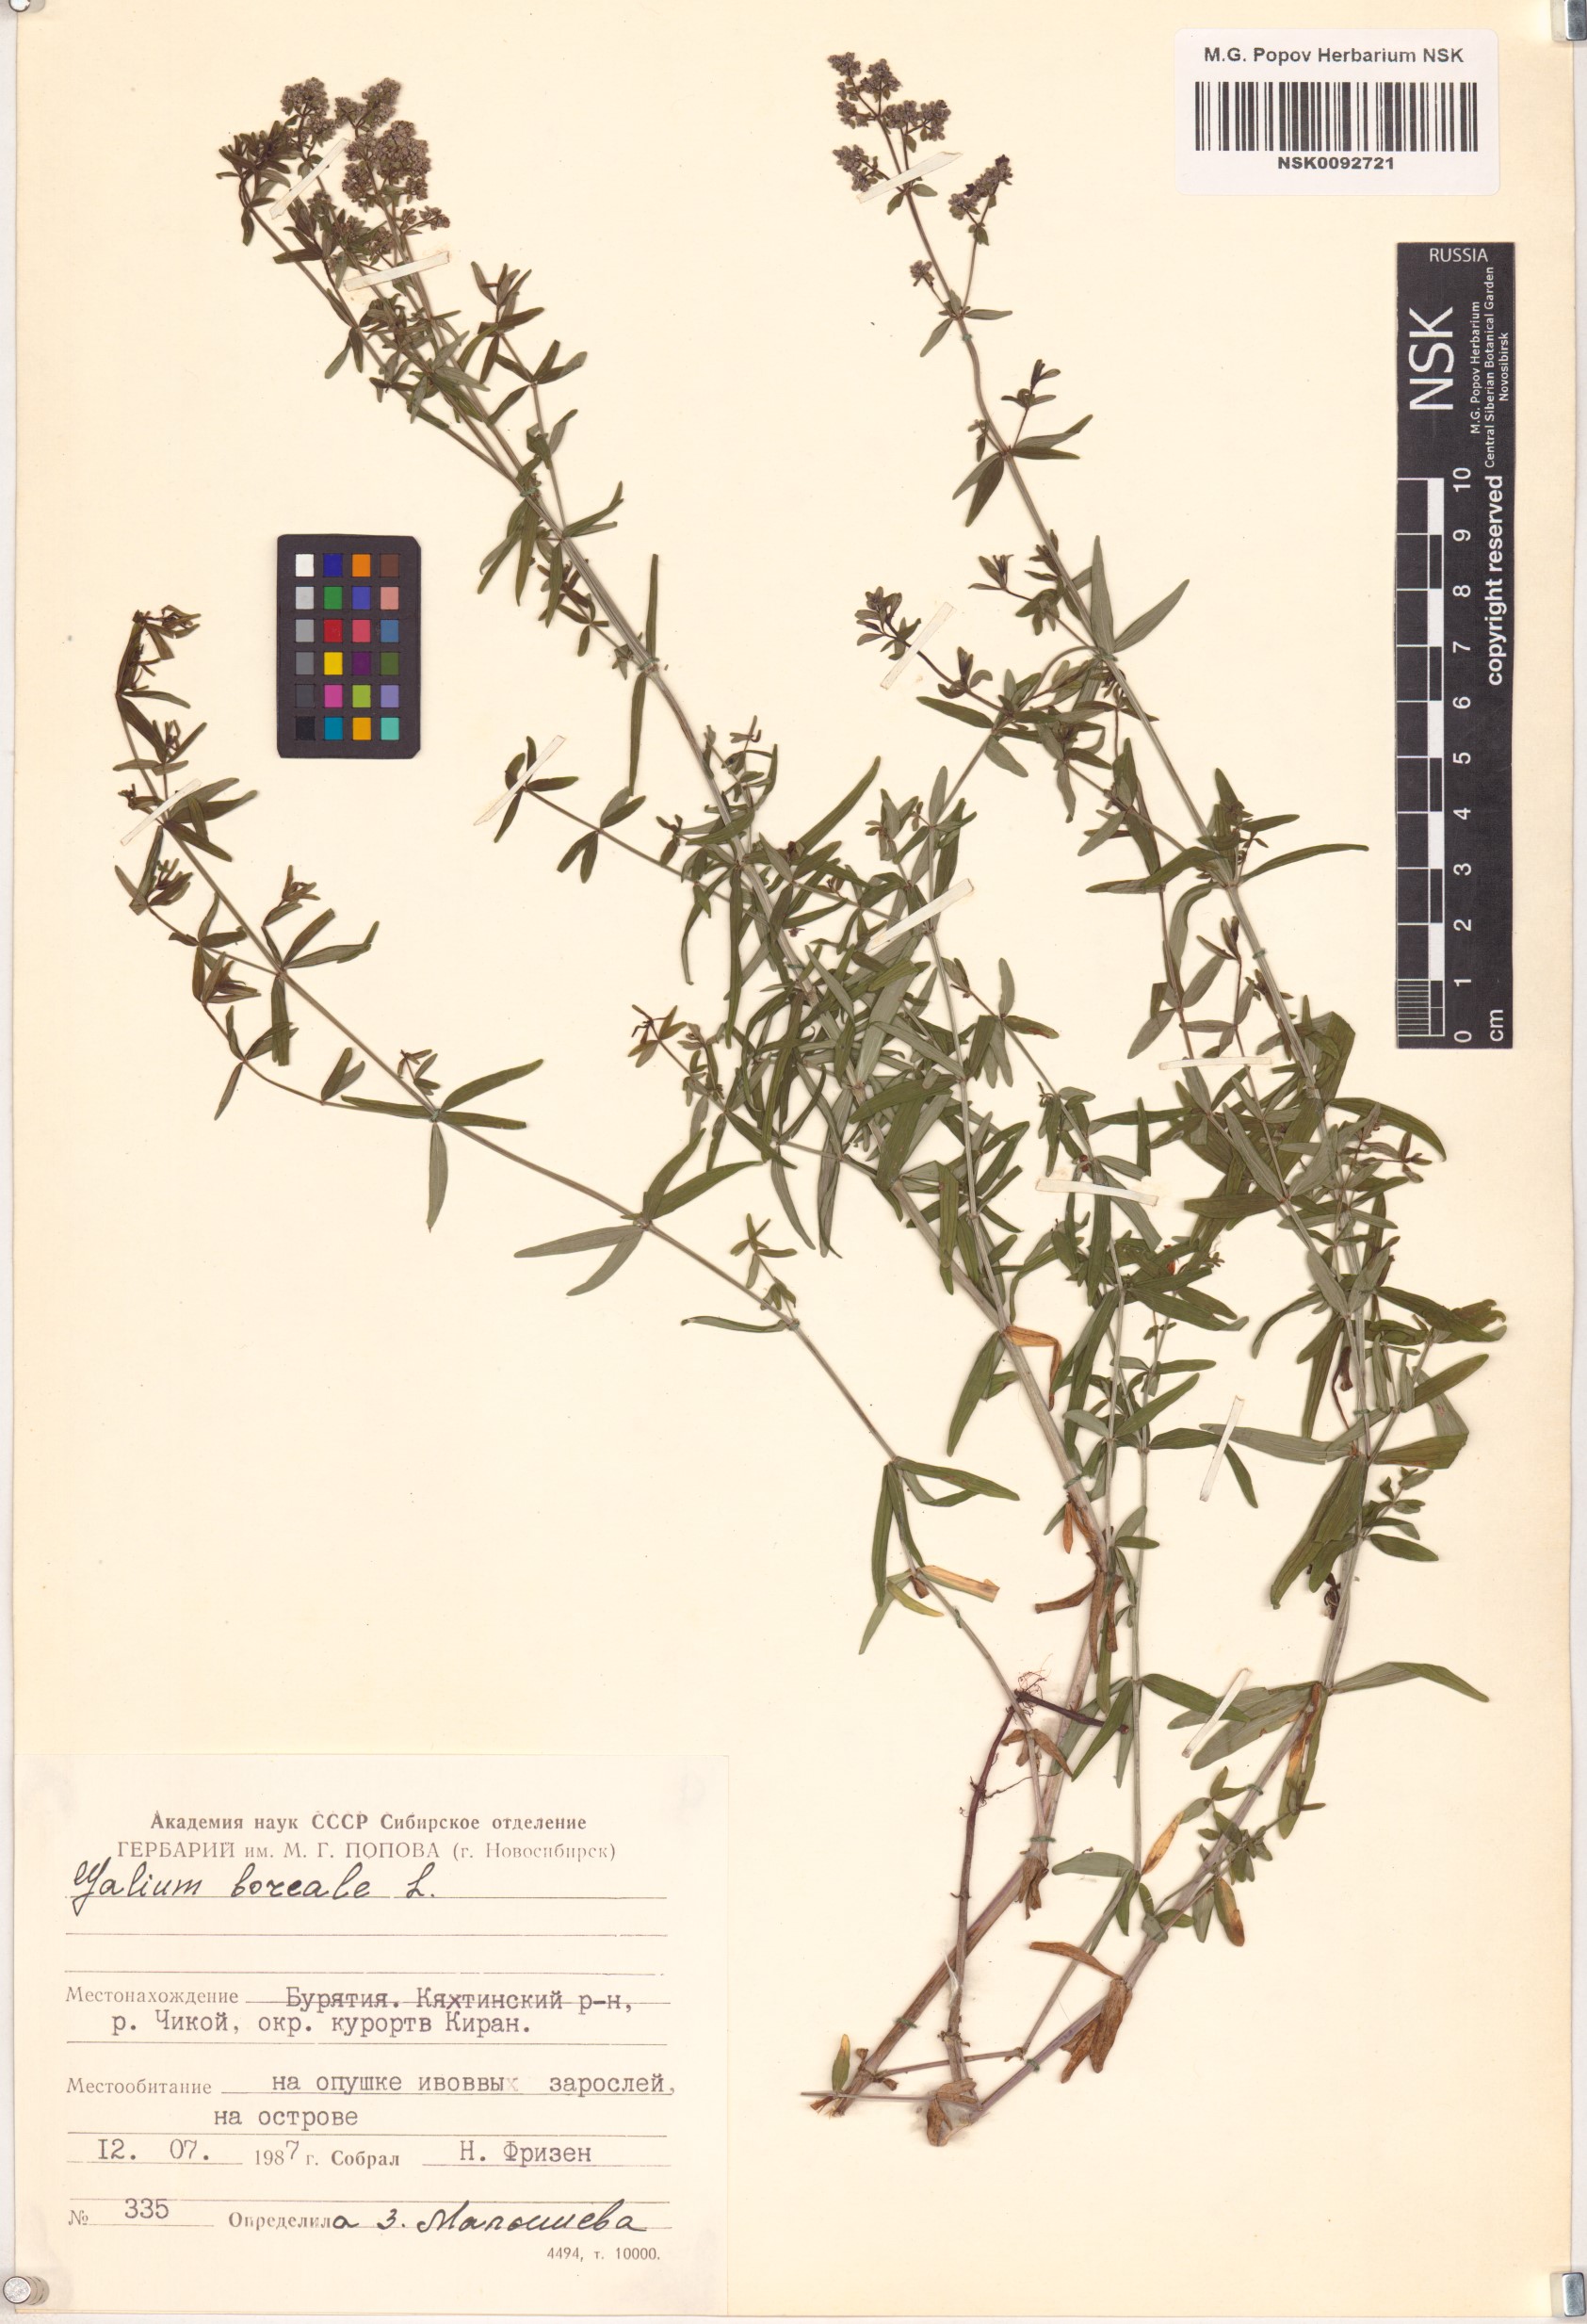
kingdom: Plantae
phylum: Tracheophyta
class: Magnoliopsida
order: Gentianales
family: Rubiaceae
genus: Galium
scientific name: Galium boreale
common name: Northern bedstraw
